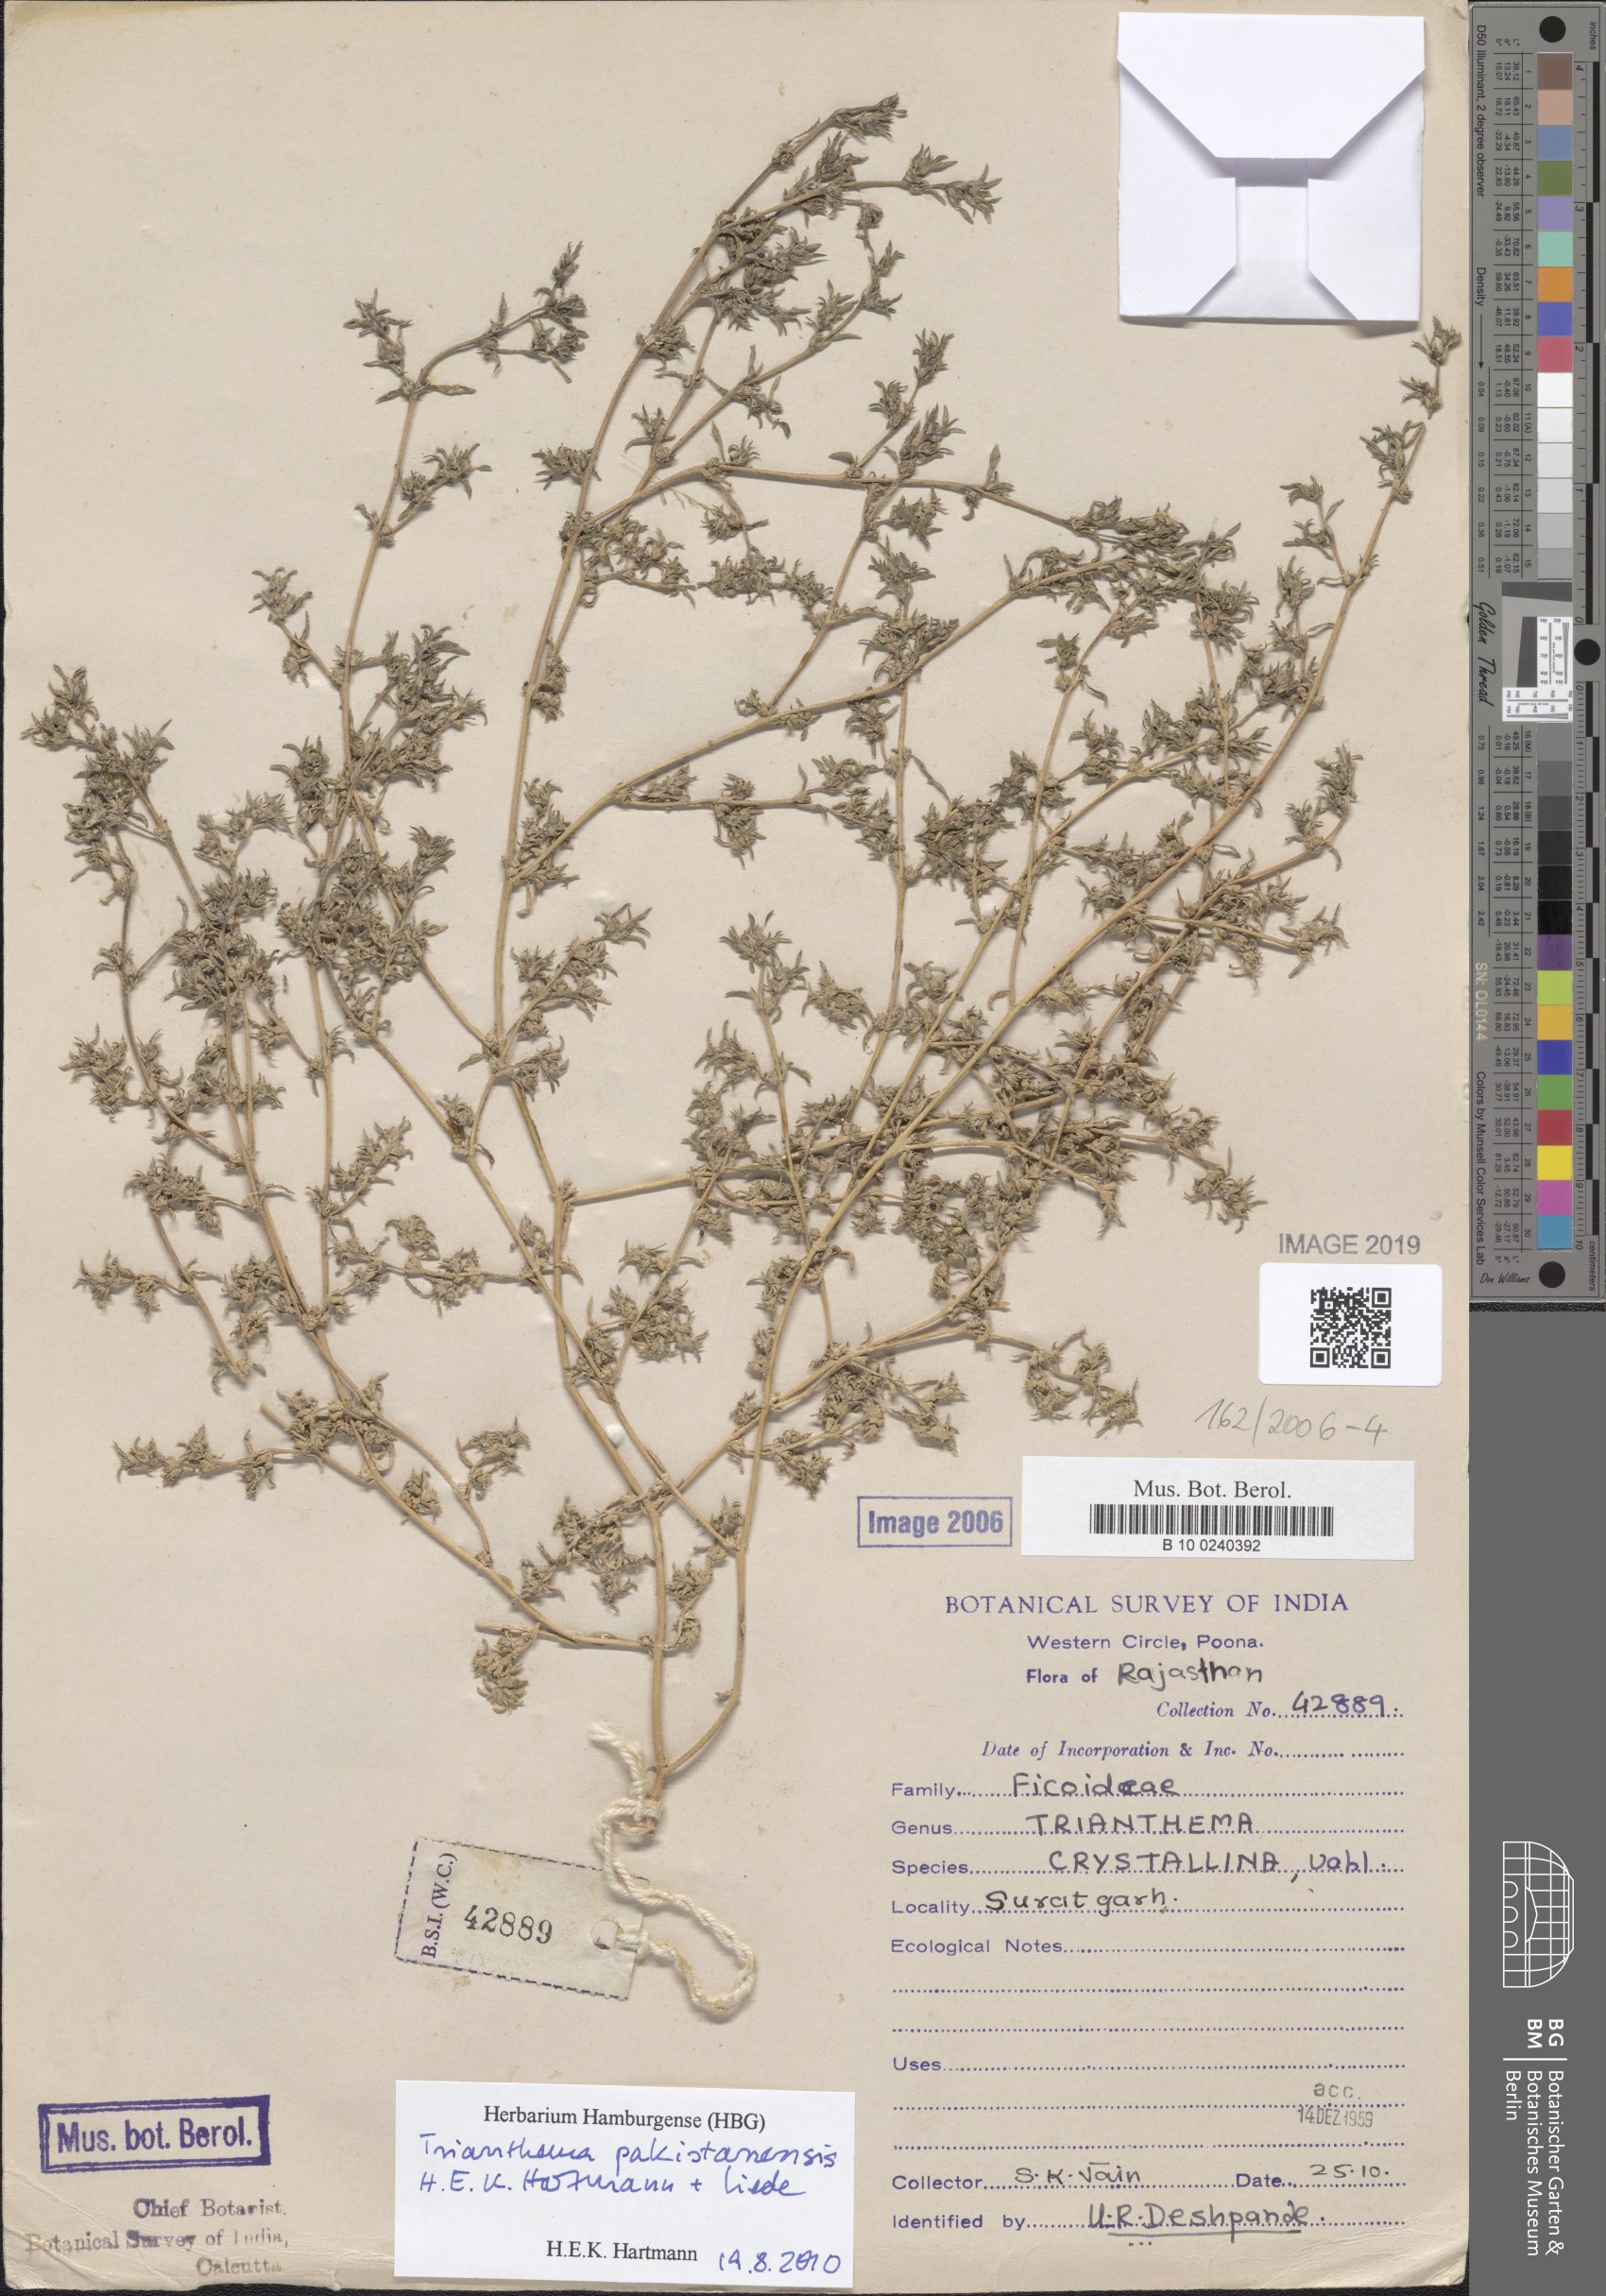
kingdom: Plantae
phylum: Tracheophyta
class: Magnoliopsida
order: Caryophyllales
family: Aizoaceae
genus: Trianthema
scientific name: Trianthema crystallinum
